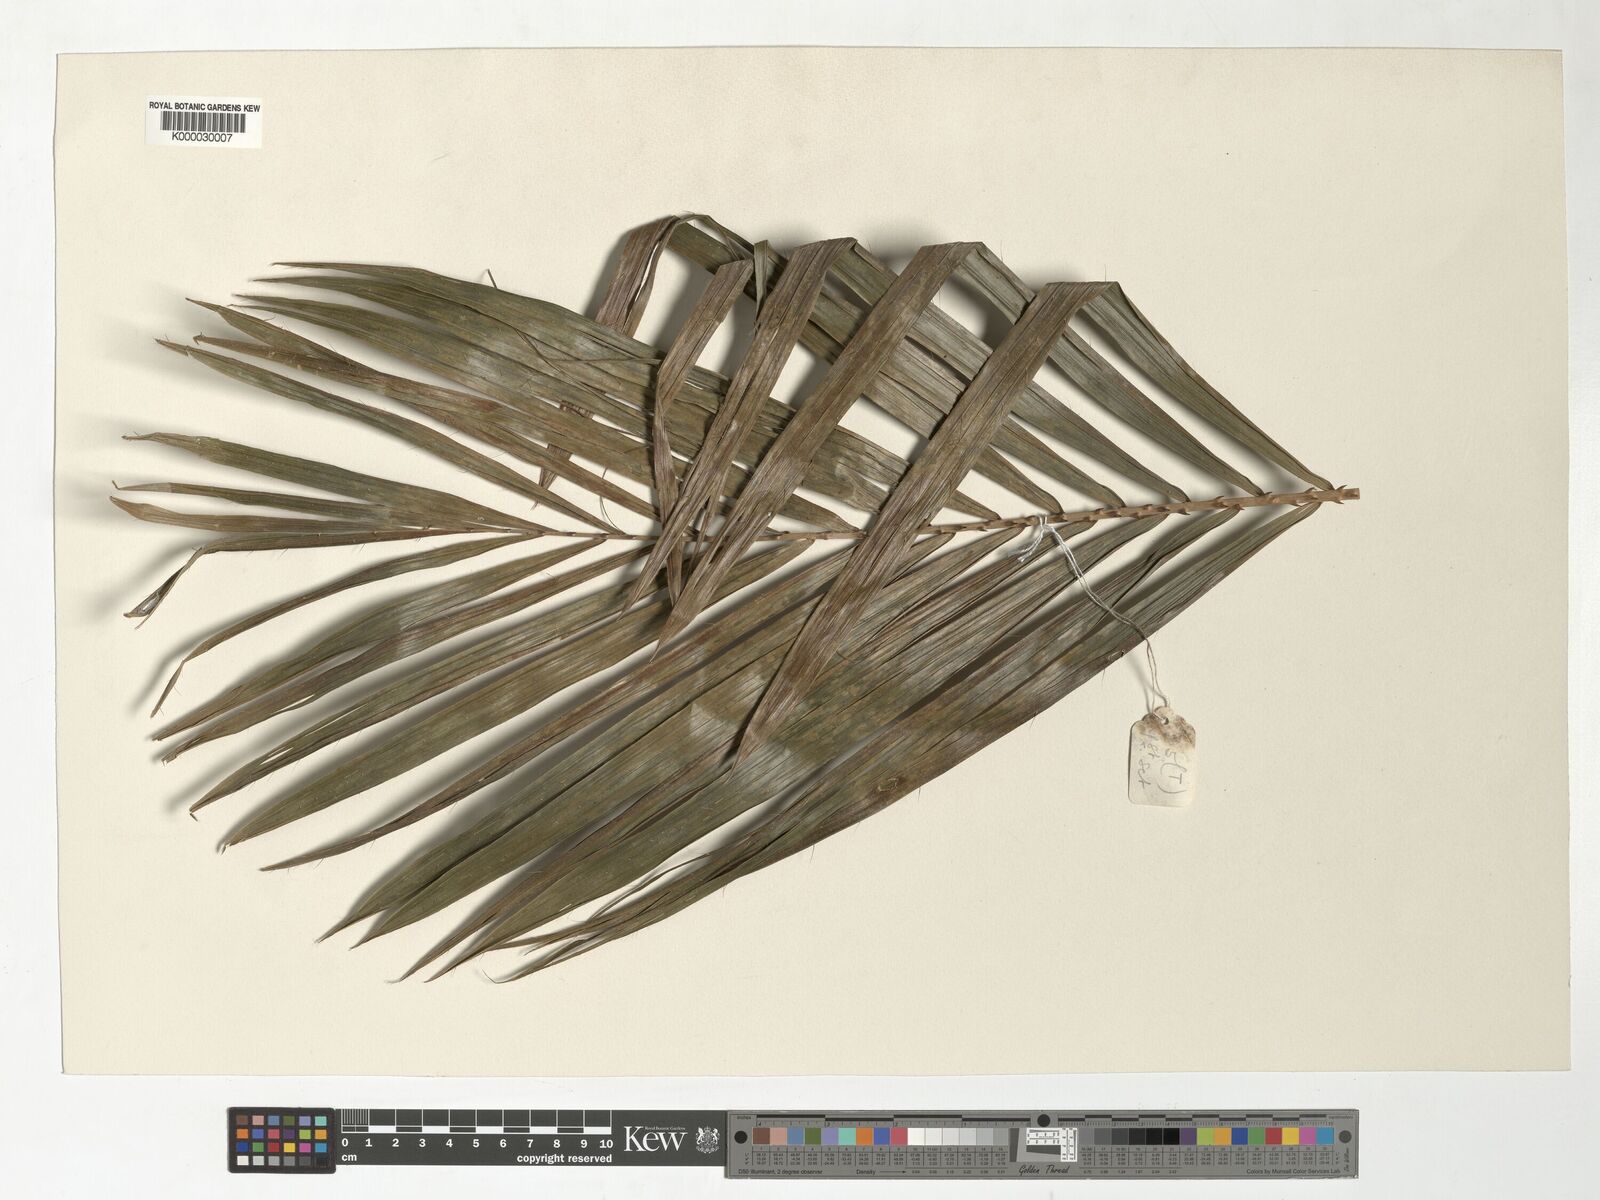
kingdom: Plantae
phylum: Tracheophyta
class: Liliopsida
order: Arecales
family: Arecaceae
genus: Calamus
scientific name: Calamus fertilis
